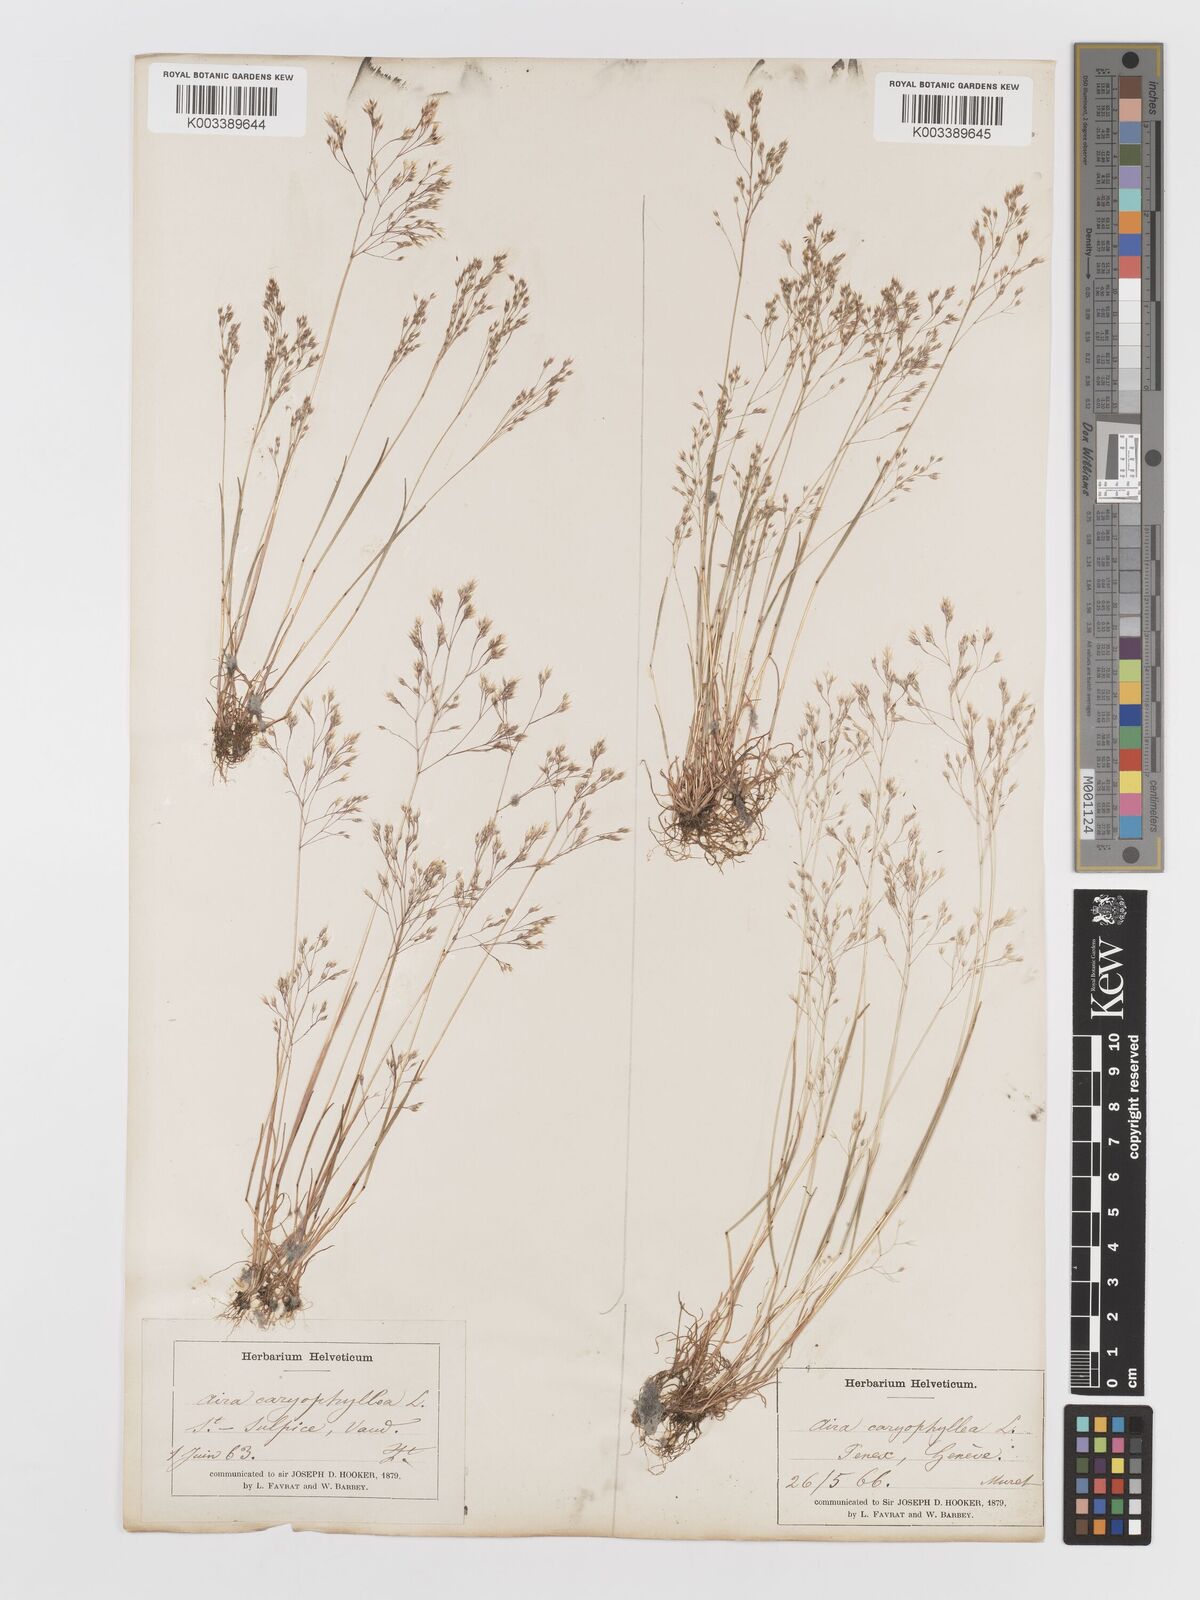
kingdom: Plantae
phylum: Tracheophyta
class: Liliopsida
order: Poales
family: Poaceae
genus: Aira
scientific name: Aira caryophyllea
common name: Silver hairgrass
